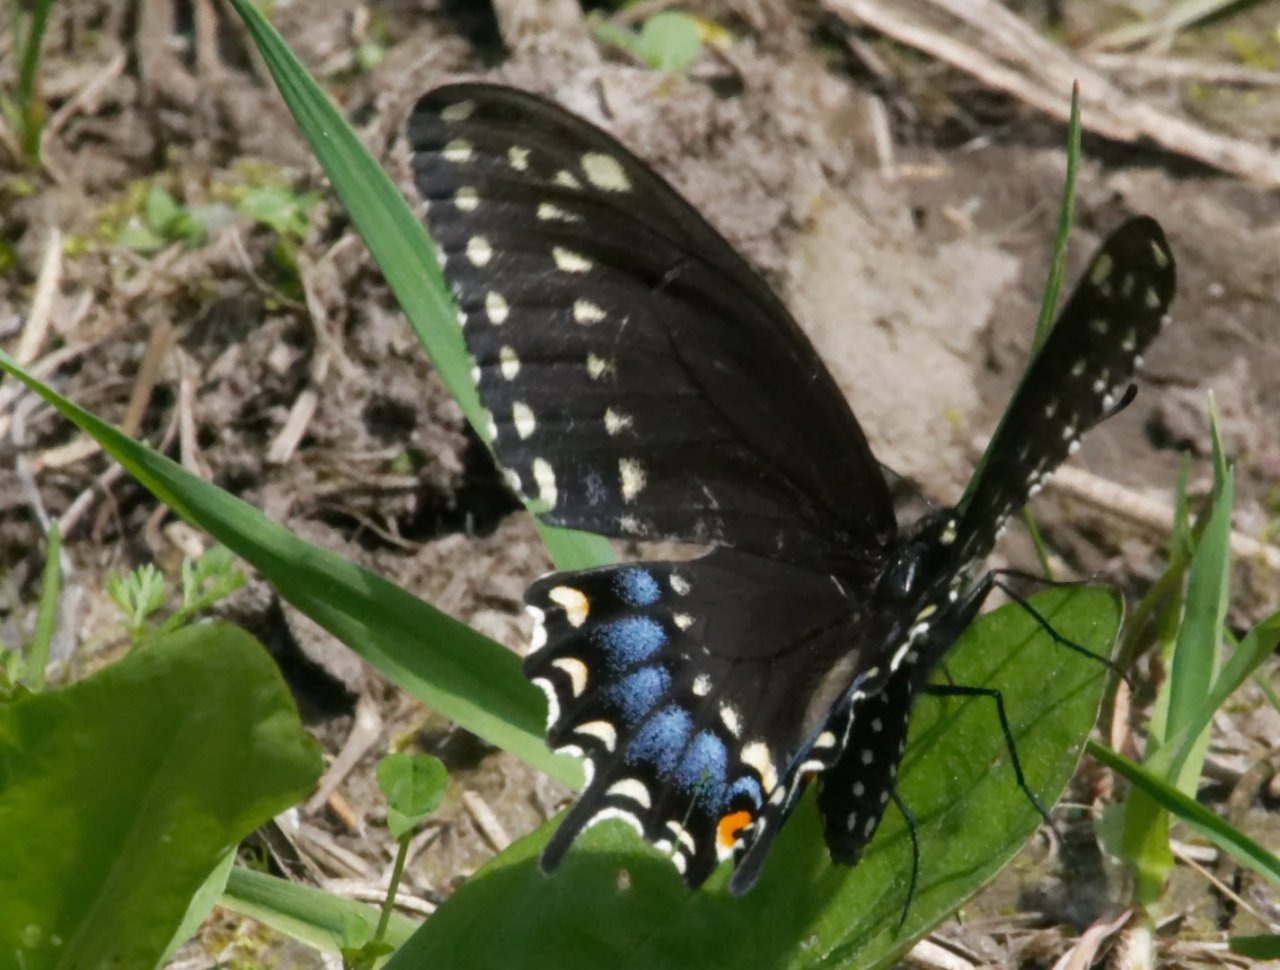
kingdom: Animalia
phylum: Arthropoda
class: Insecta
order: Lepidoptera
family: Papilionidae
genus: Papilio
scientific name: Papilio polyxenes
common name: Black Swallowtail
